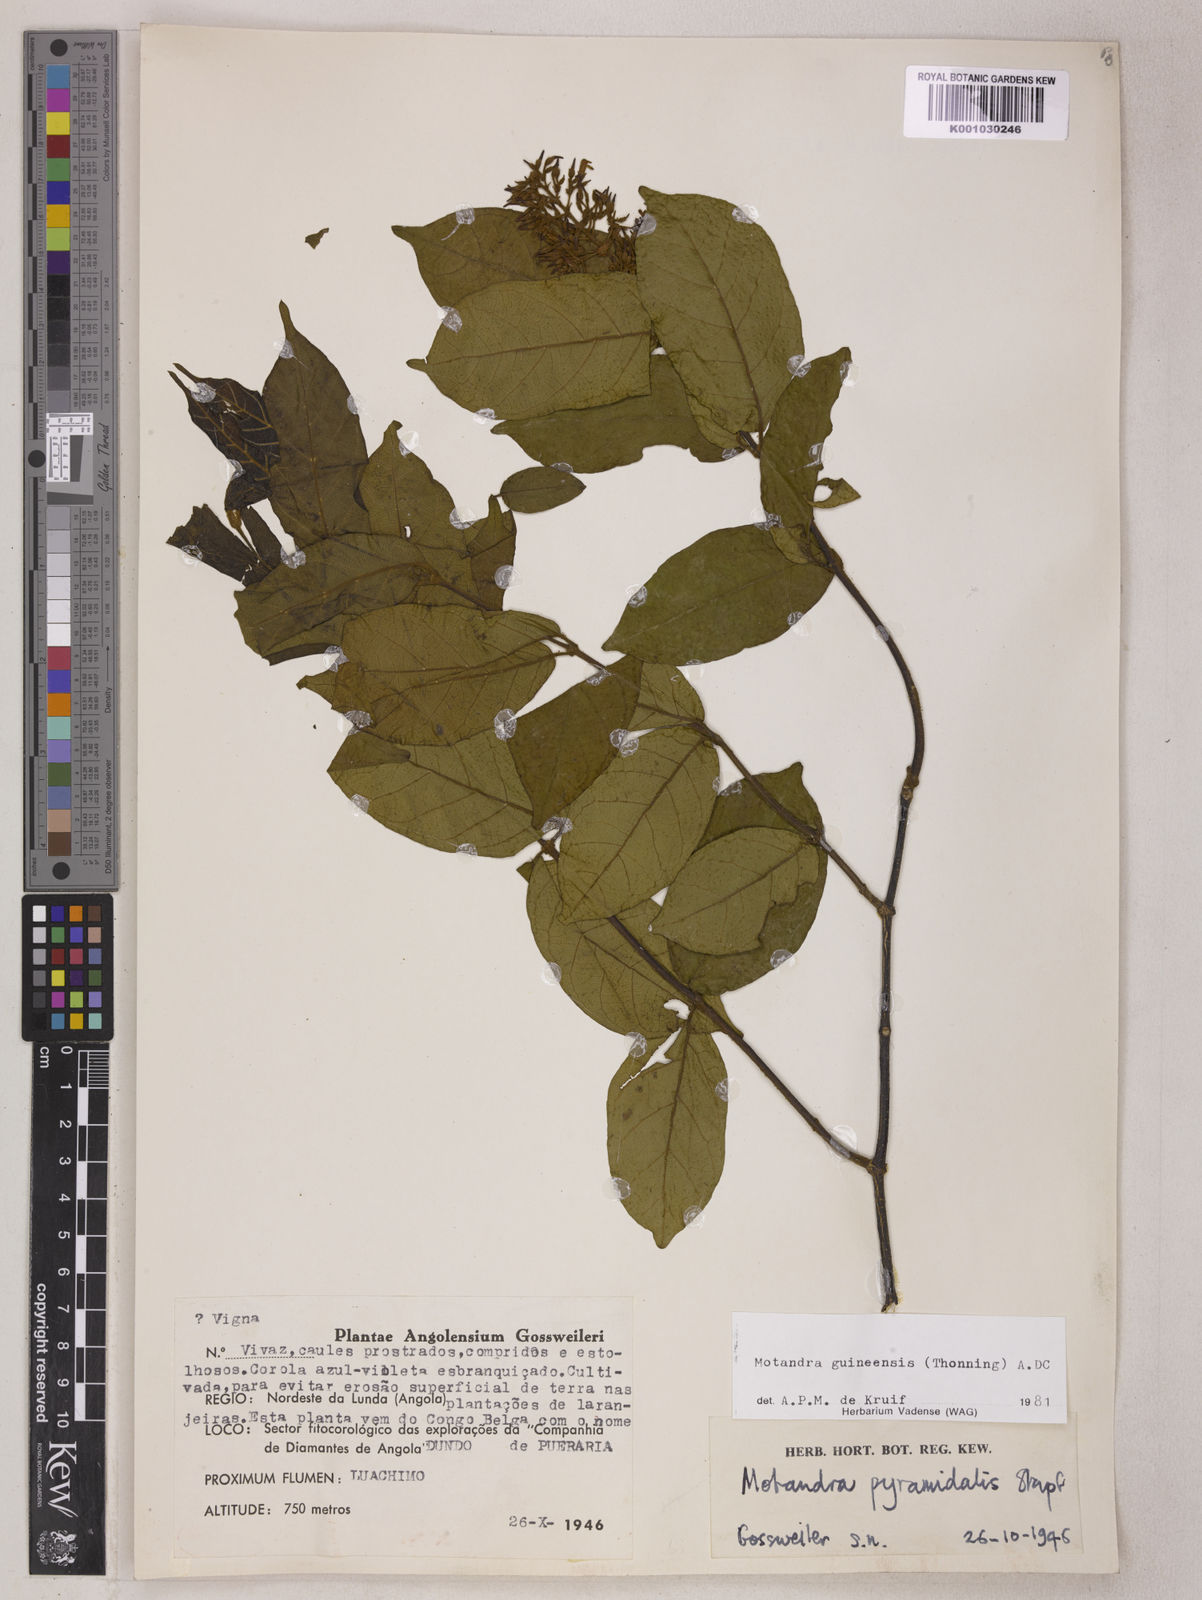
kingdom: Plantae
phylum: Tracheophyta
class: Magnoliopsida
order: Gentianales
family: Apocynaceae
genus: Motandra
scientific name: Motandra paniculata
